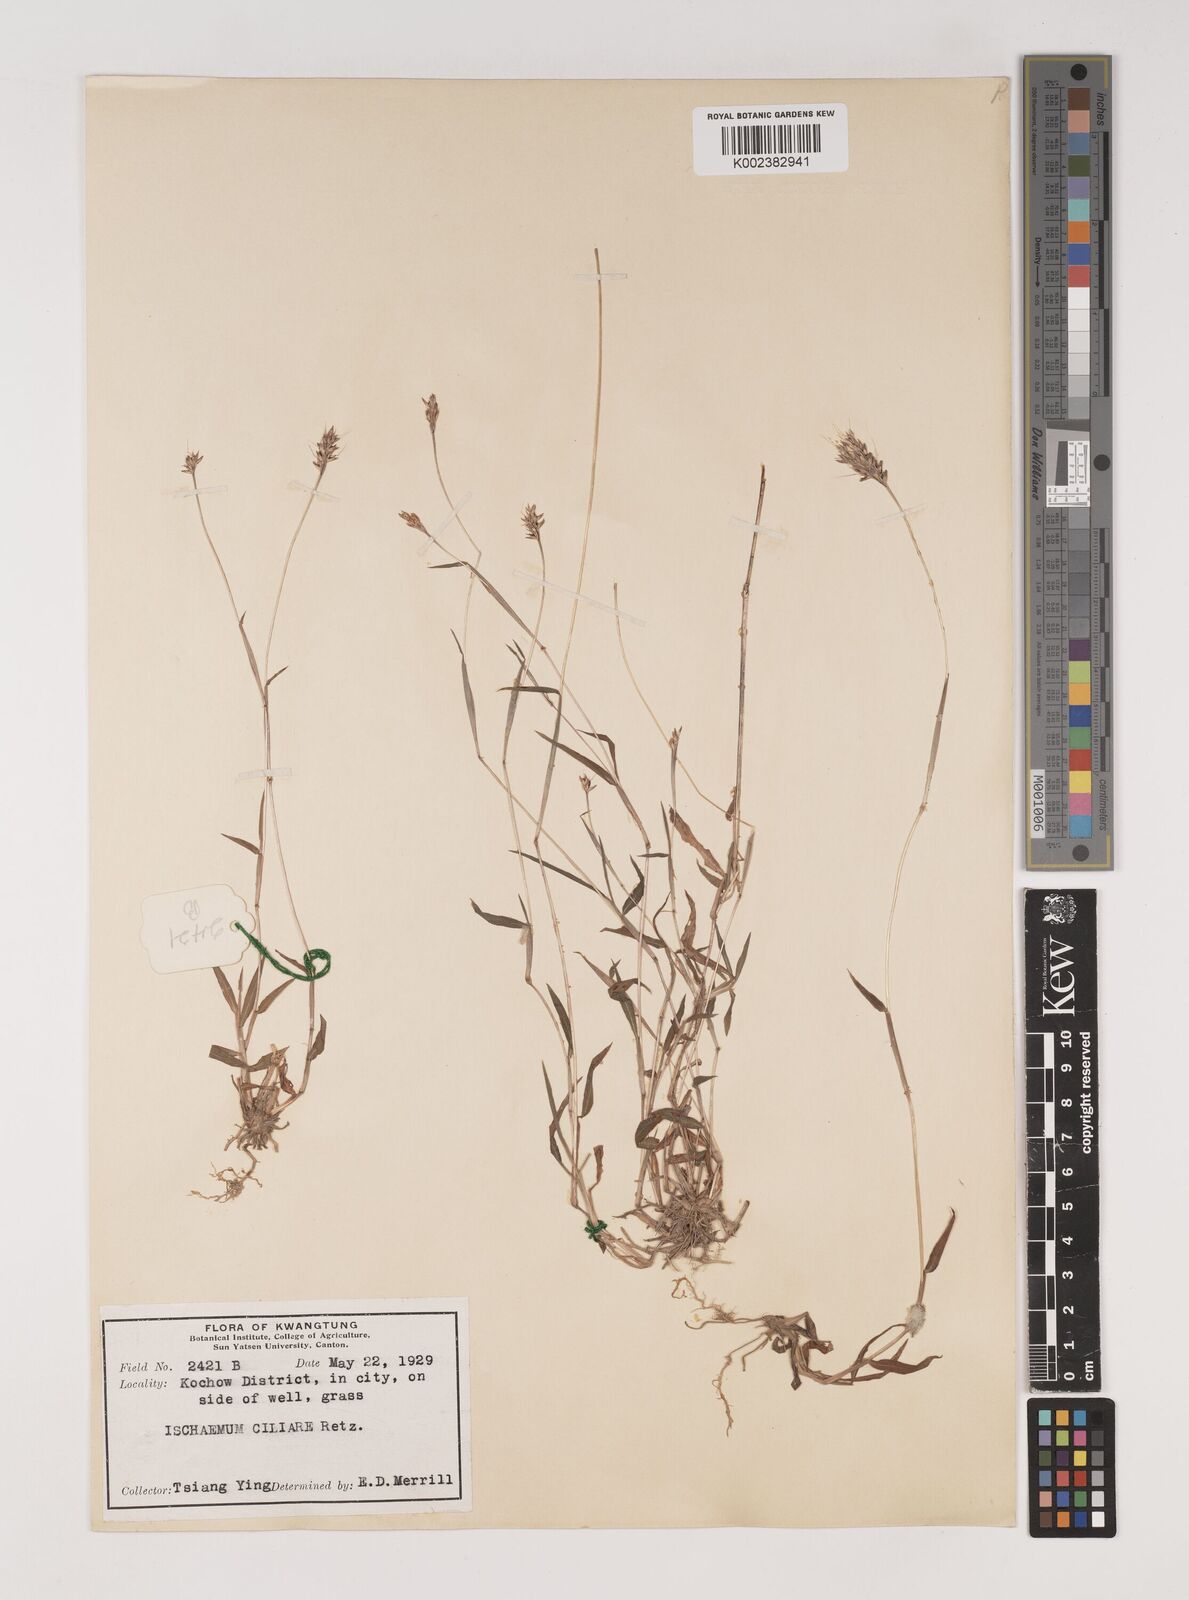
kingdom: Plantae
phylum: Tracheophyta
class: Liliopsida
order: Poales
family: Poaceae
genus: Polytrias
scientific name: Polytrias indica
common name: Indian murainagrass
